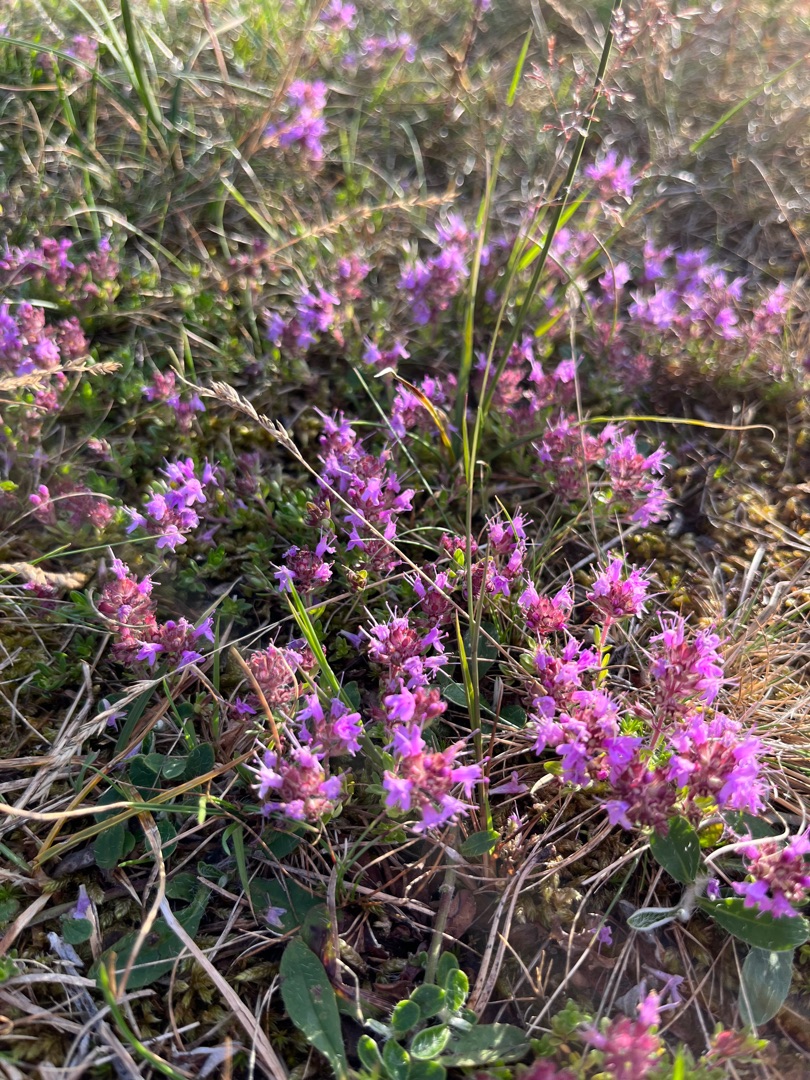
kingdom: Plantae
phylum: Tracheophyta
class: Magnoliopsida
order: Lamiales
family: Lamiaceae
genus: Thymus
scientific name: Thymus serpyllum
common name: Smalbladet timian
